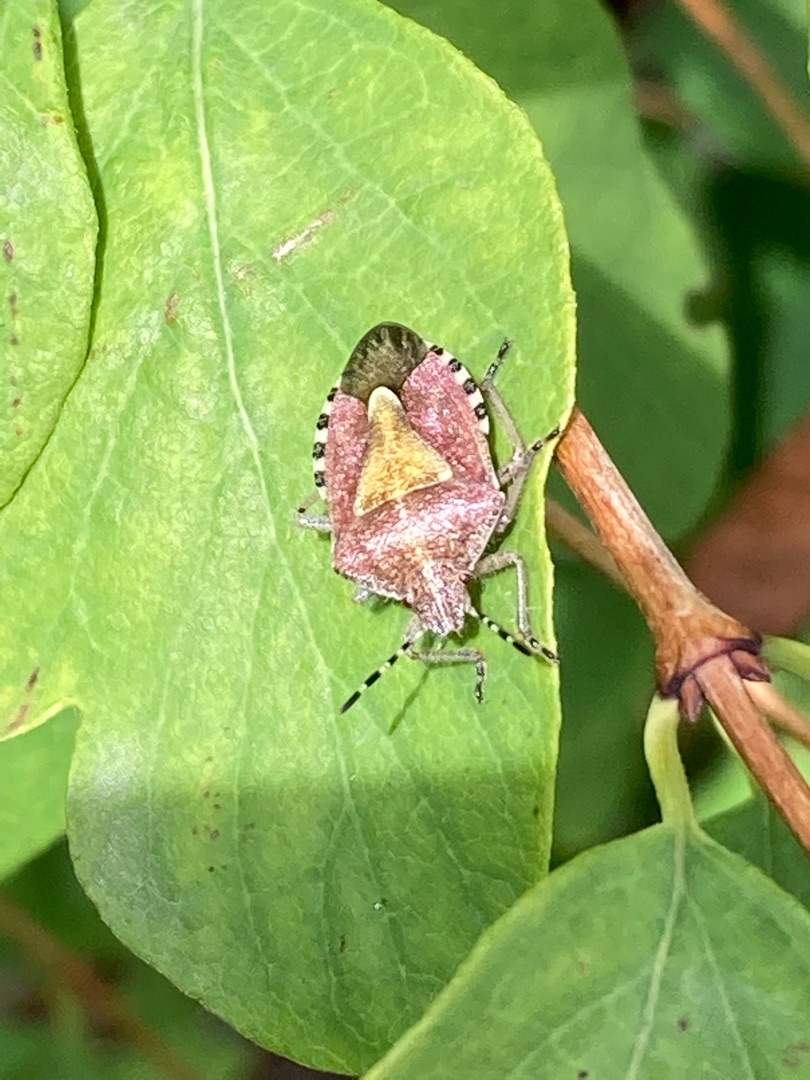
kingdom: Animalia
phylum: Arthropoda
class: Insecta
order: Hemiptera
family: Pentatomidae
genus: Dolycoris
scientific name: Dolycoris baccarum
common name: Almindelig bærtæge
